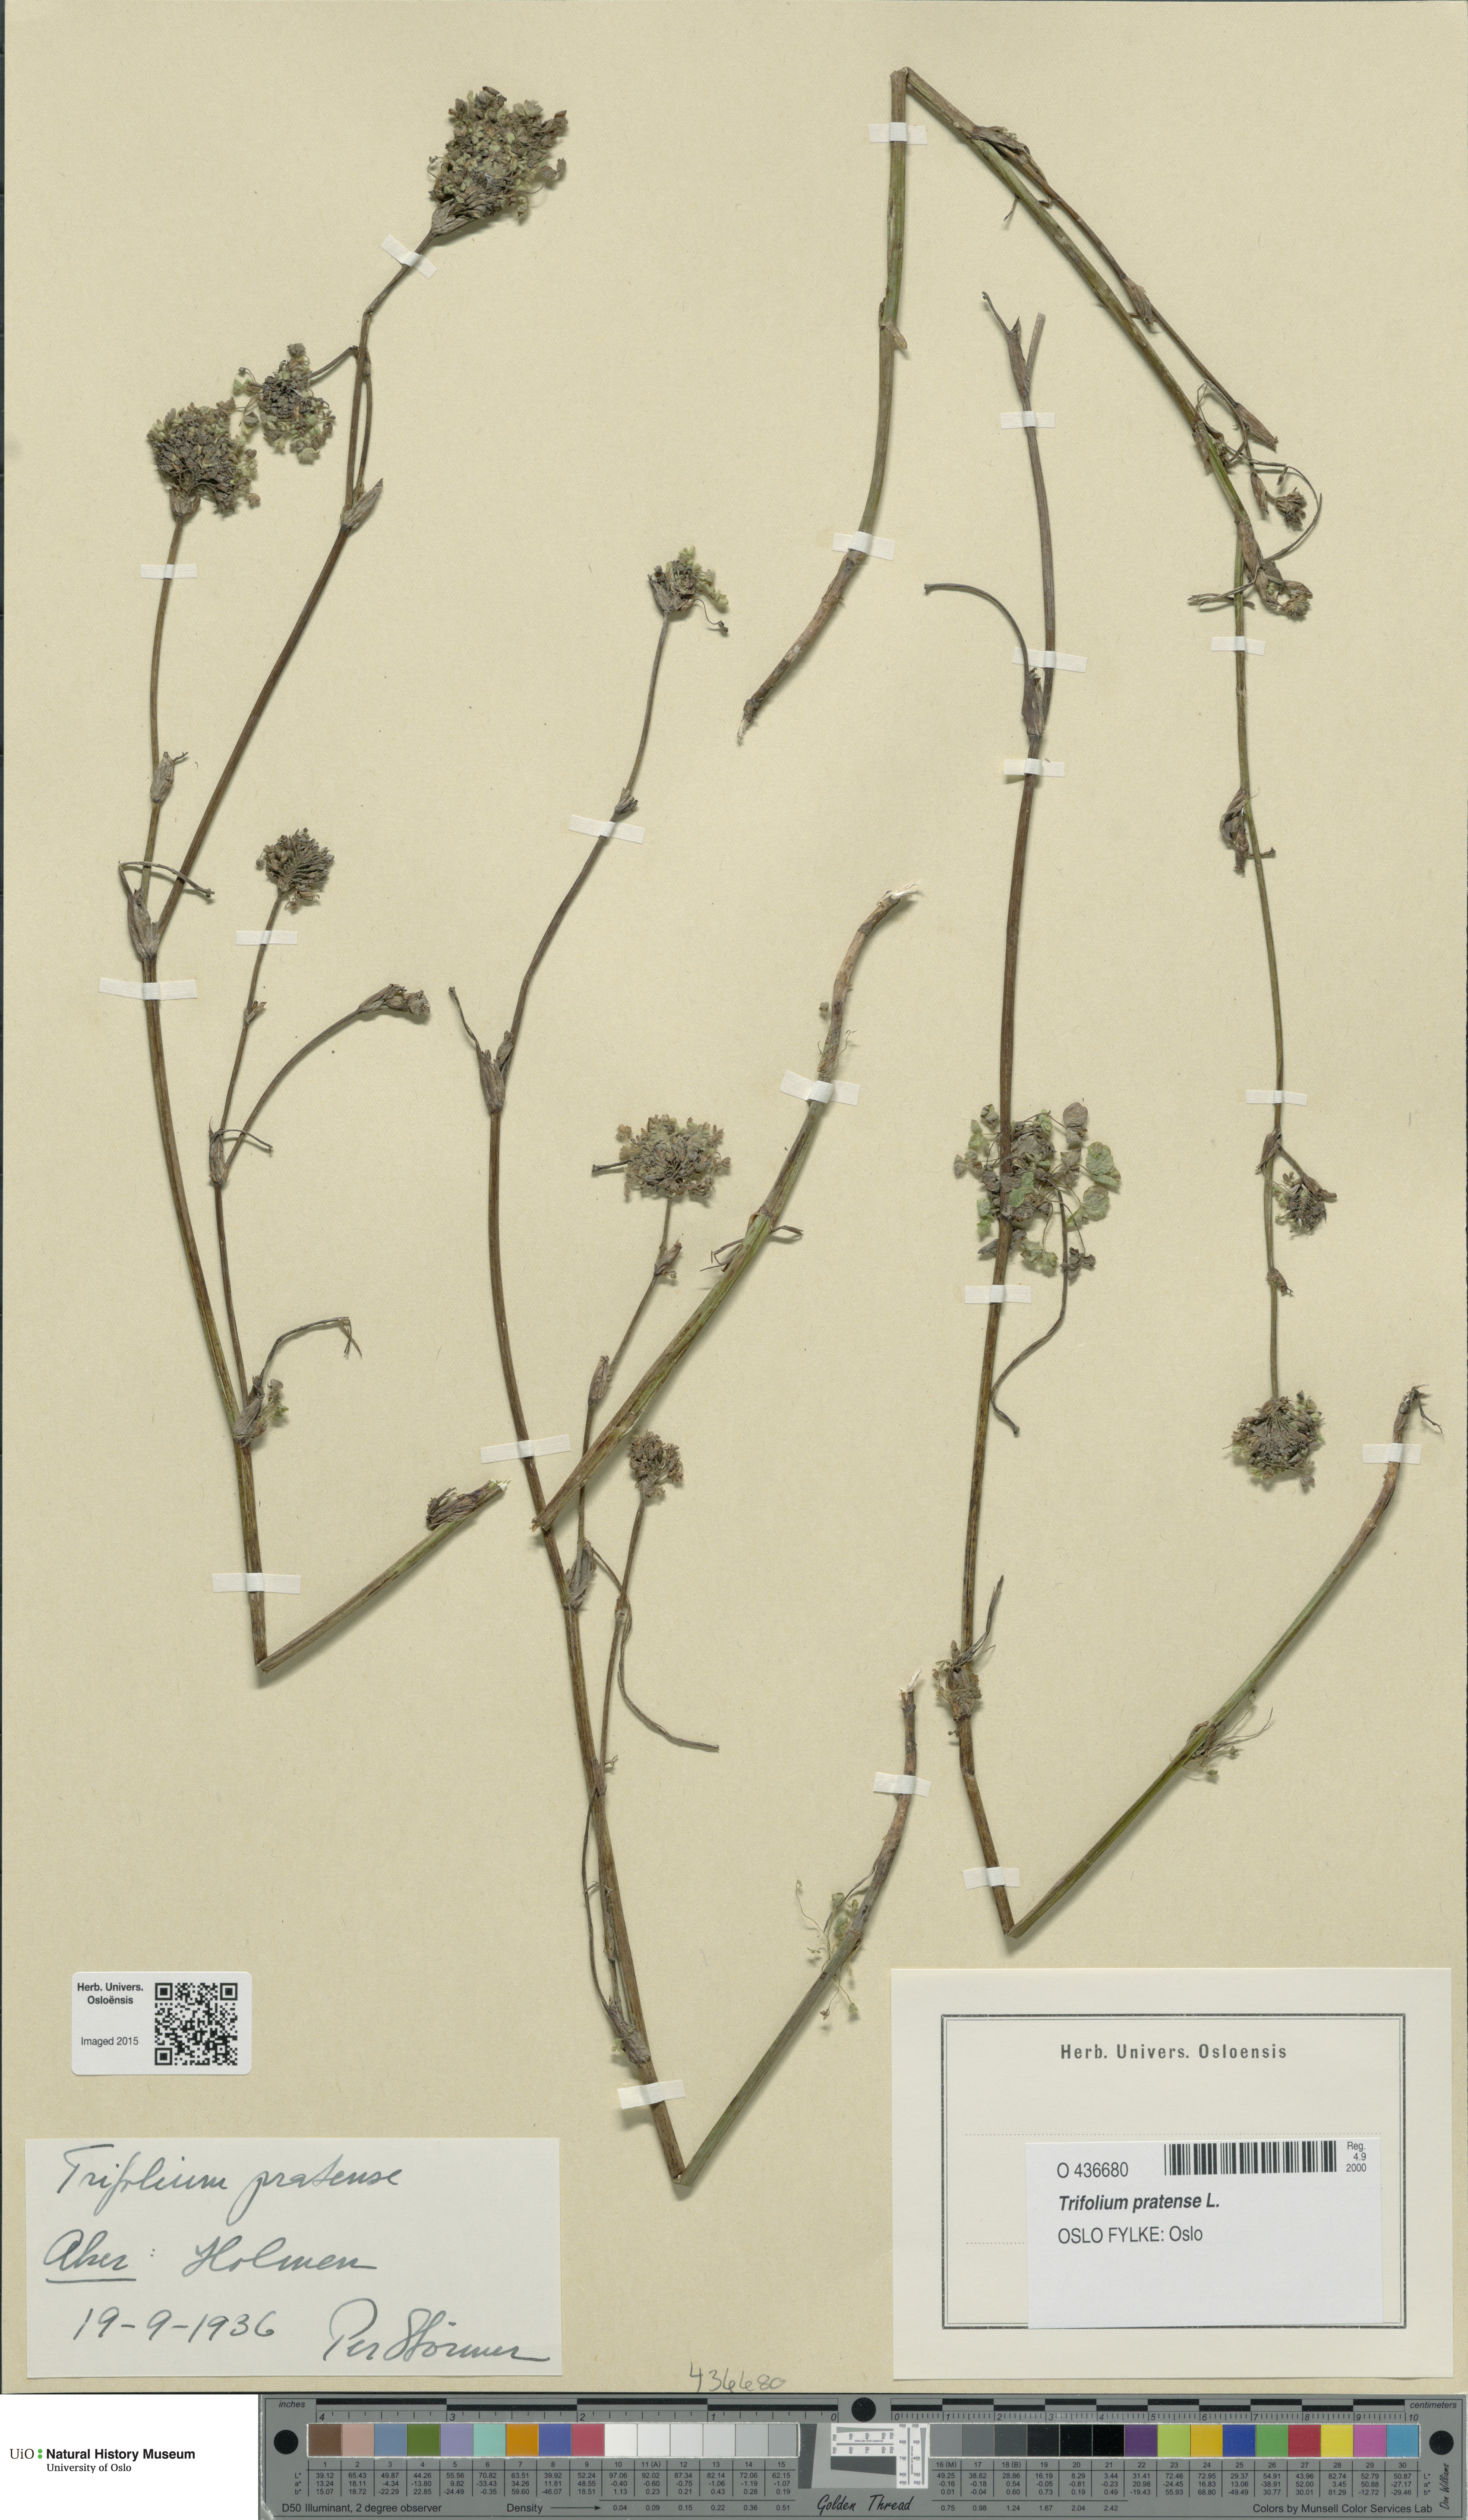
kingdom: Plantae
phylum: Tracheophyta
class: Magnoliopsida
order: Fabales
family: Fabaceae
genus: Trifolium
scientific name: Trifolium pratense
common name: Red clover
